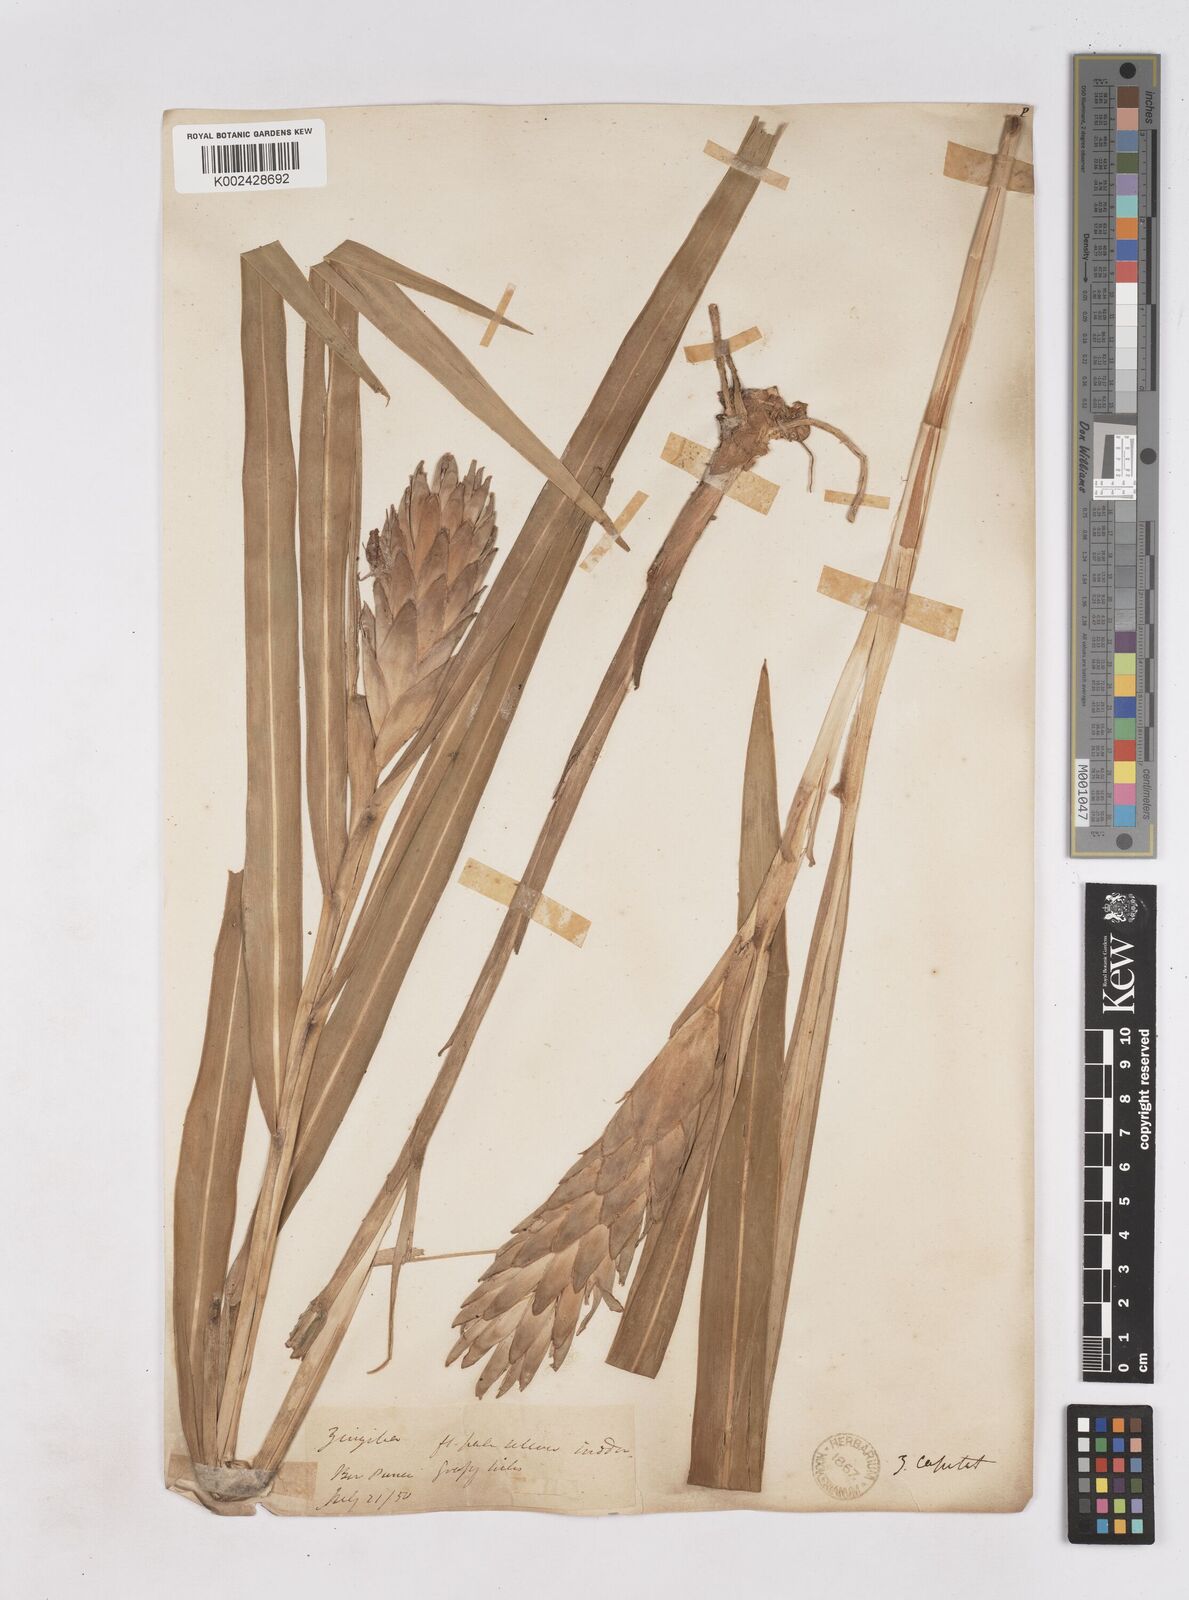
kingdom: Plantae
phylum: Tracheophyta
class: Liliopsida
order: Zingiberales
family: Zingiberaceae
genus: Zingiber
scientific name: Zingiber capitatum
